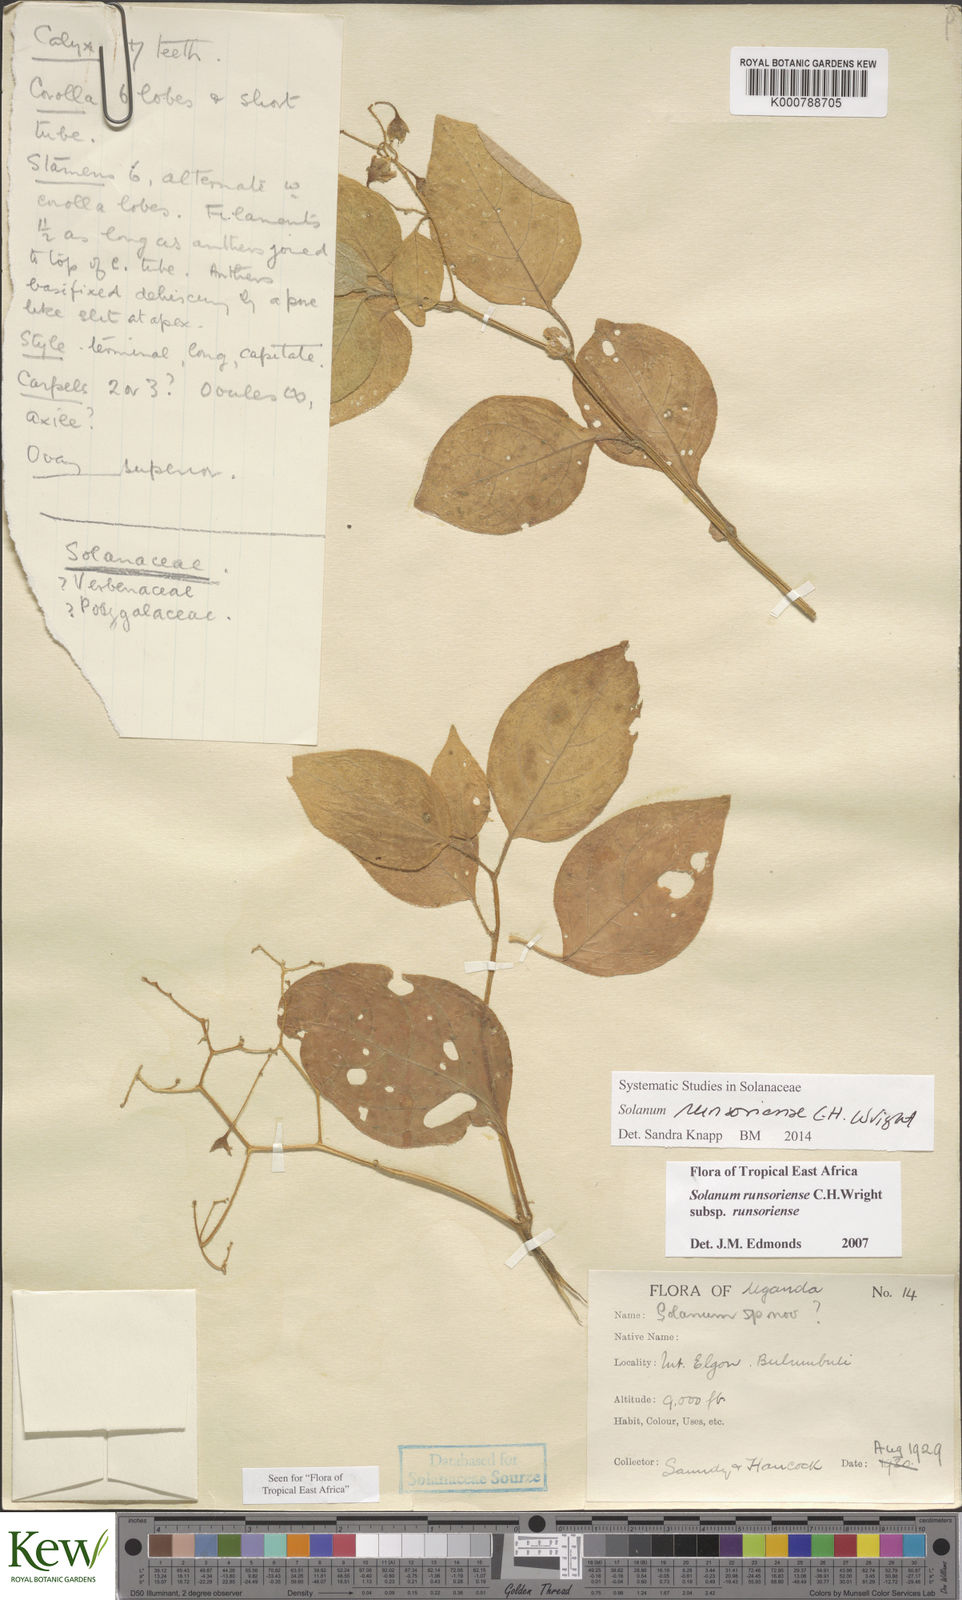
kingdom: Plantae
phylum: Tracheophyta
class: Magnoliopsida
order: Solanales
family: Solanaceae
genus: Solanum
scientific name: Solanum runsoriense
